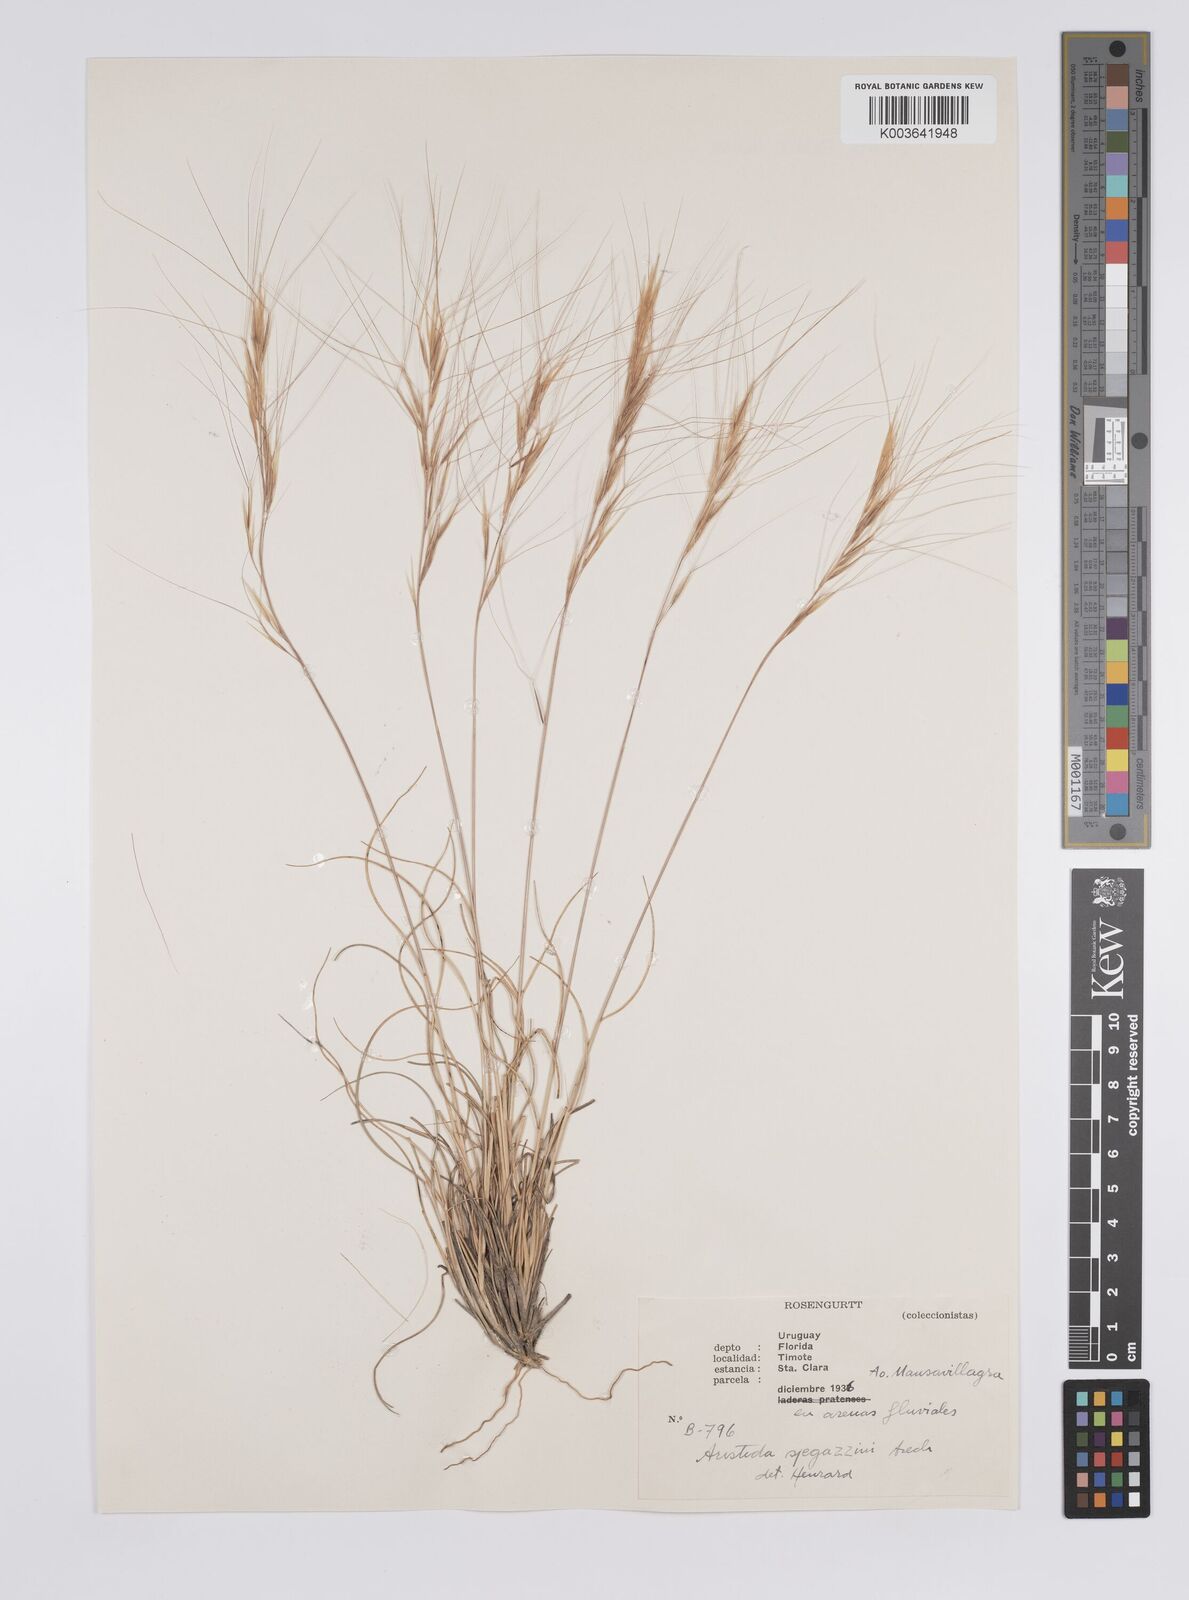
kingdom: Plantae
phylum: Tracheophyta
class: Liliopsida
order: Poales
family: Poaceae
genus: Aristida
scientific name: Aristida spegazzinii
